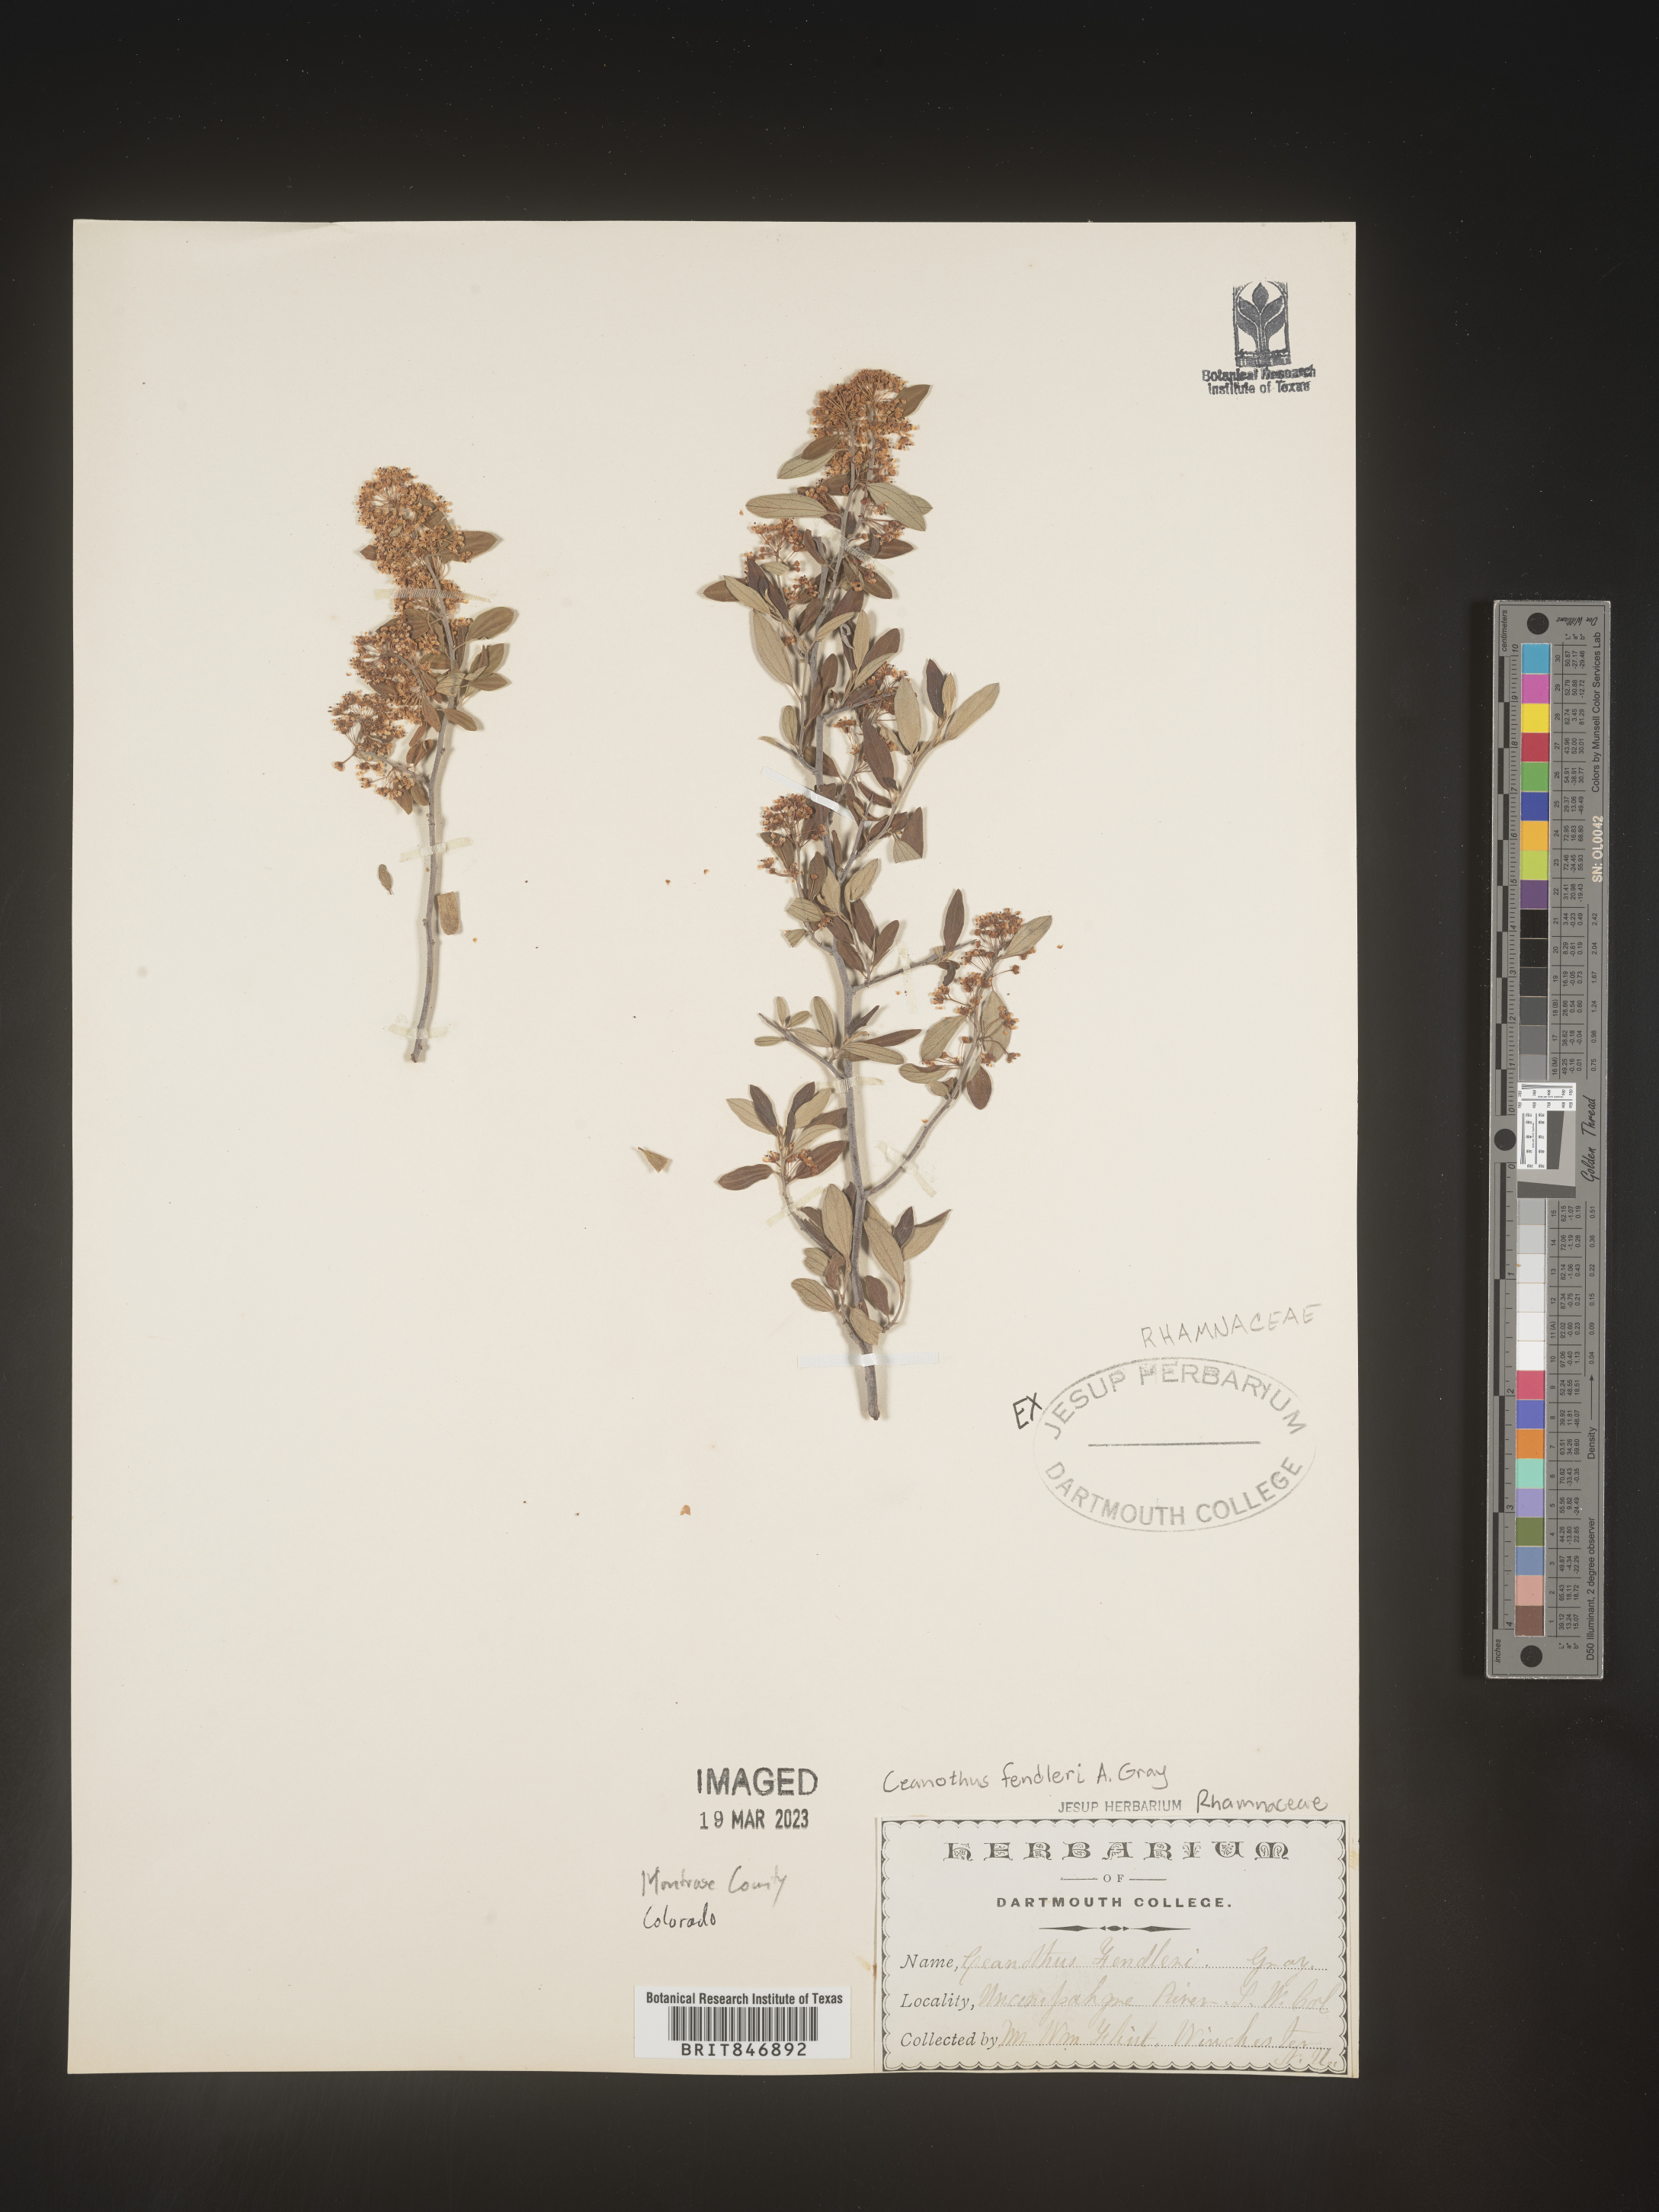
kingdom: Plantae
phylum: Tracheophyta
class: Magnoliopsida
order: Rosales
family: Rhamnaceae
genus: Ceanothus
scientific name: Ceanothus fendleri
